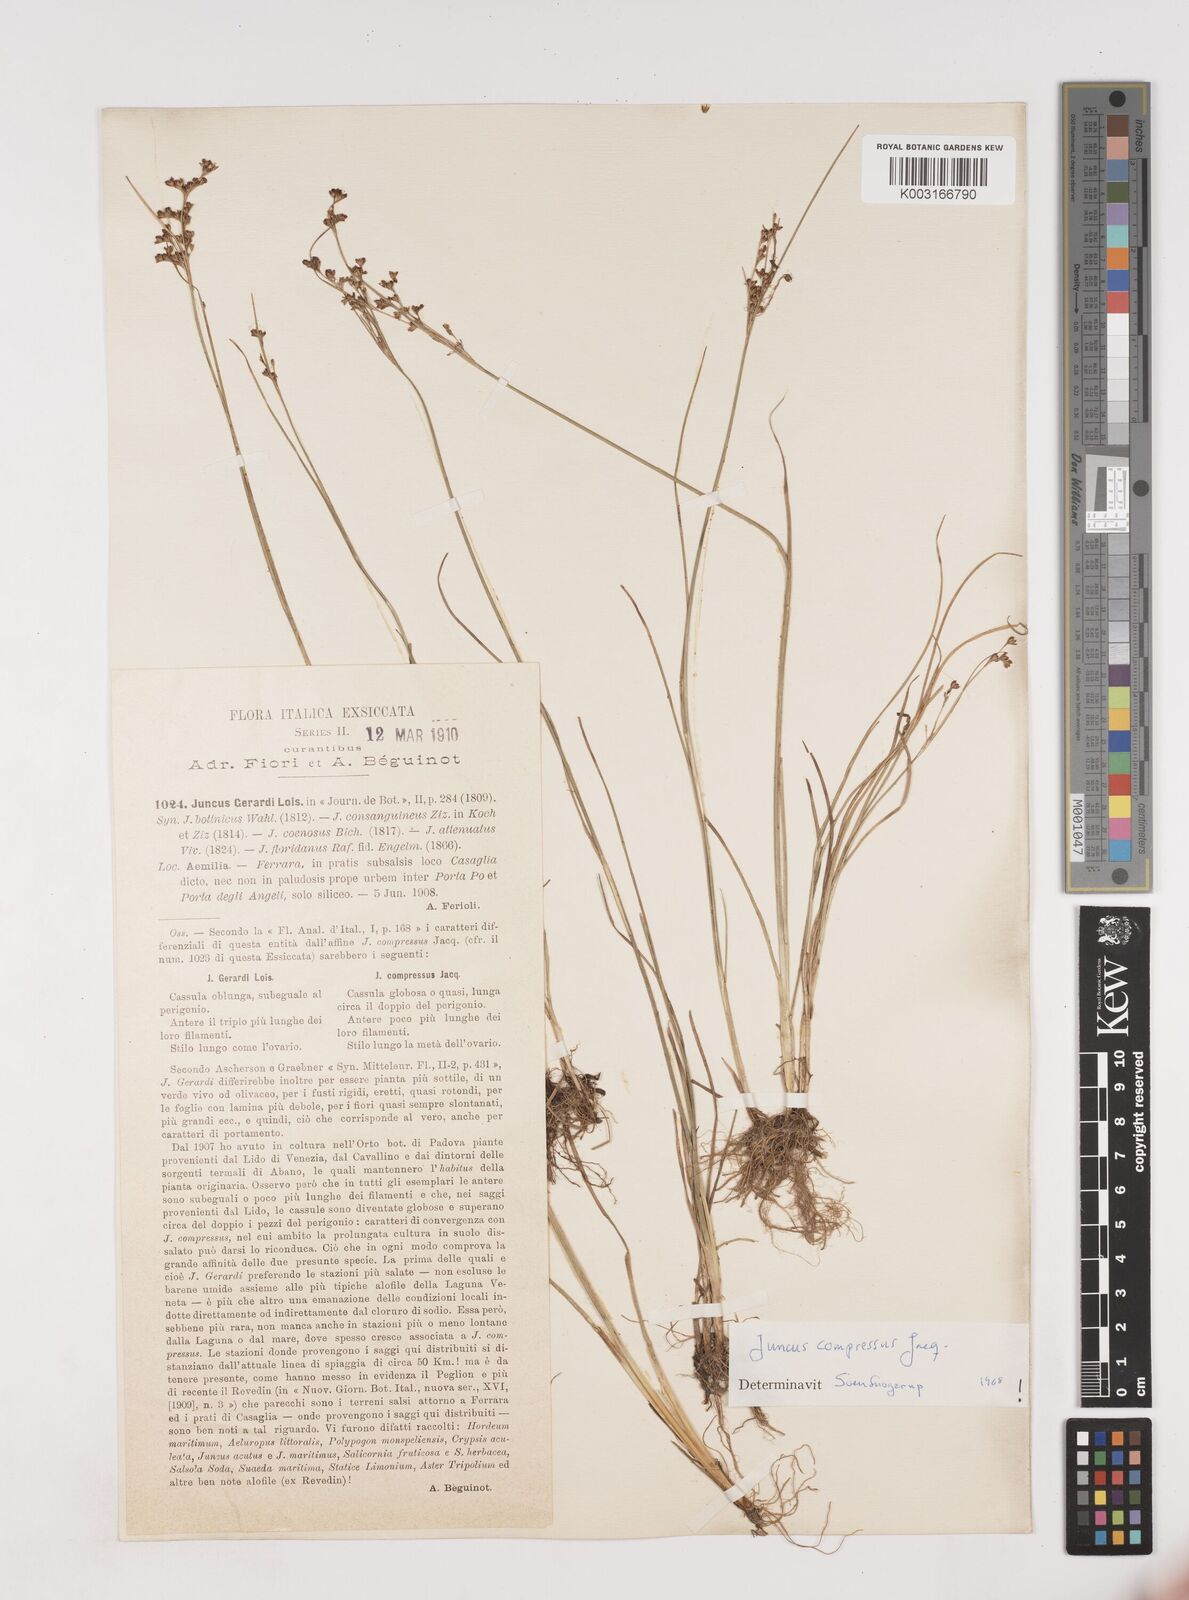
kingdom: Plantae
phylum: Tracheophyta
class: Liliopsida
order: Poales
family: Juncaceae
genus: Juncus
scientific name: Juncus compressus
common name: Round-fruited rush
